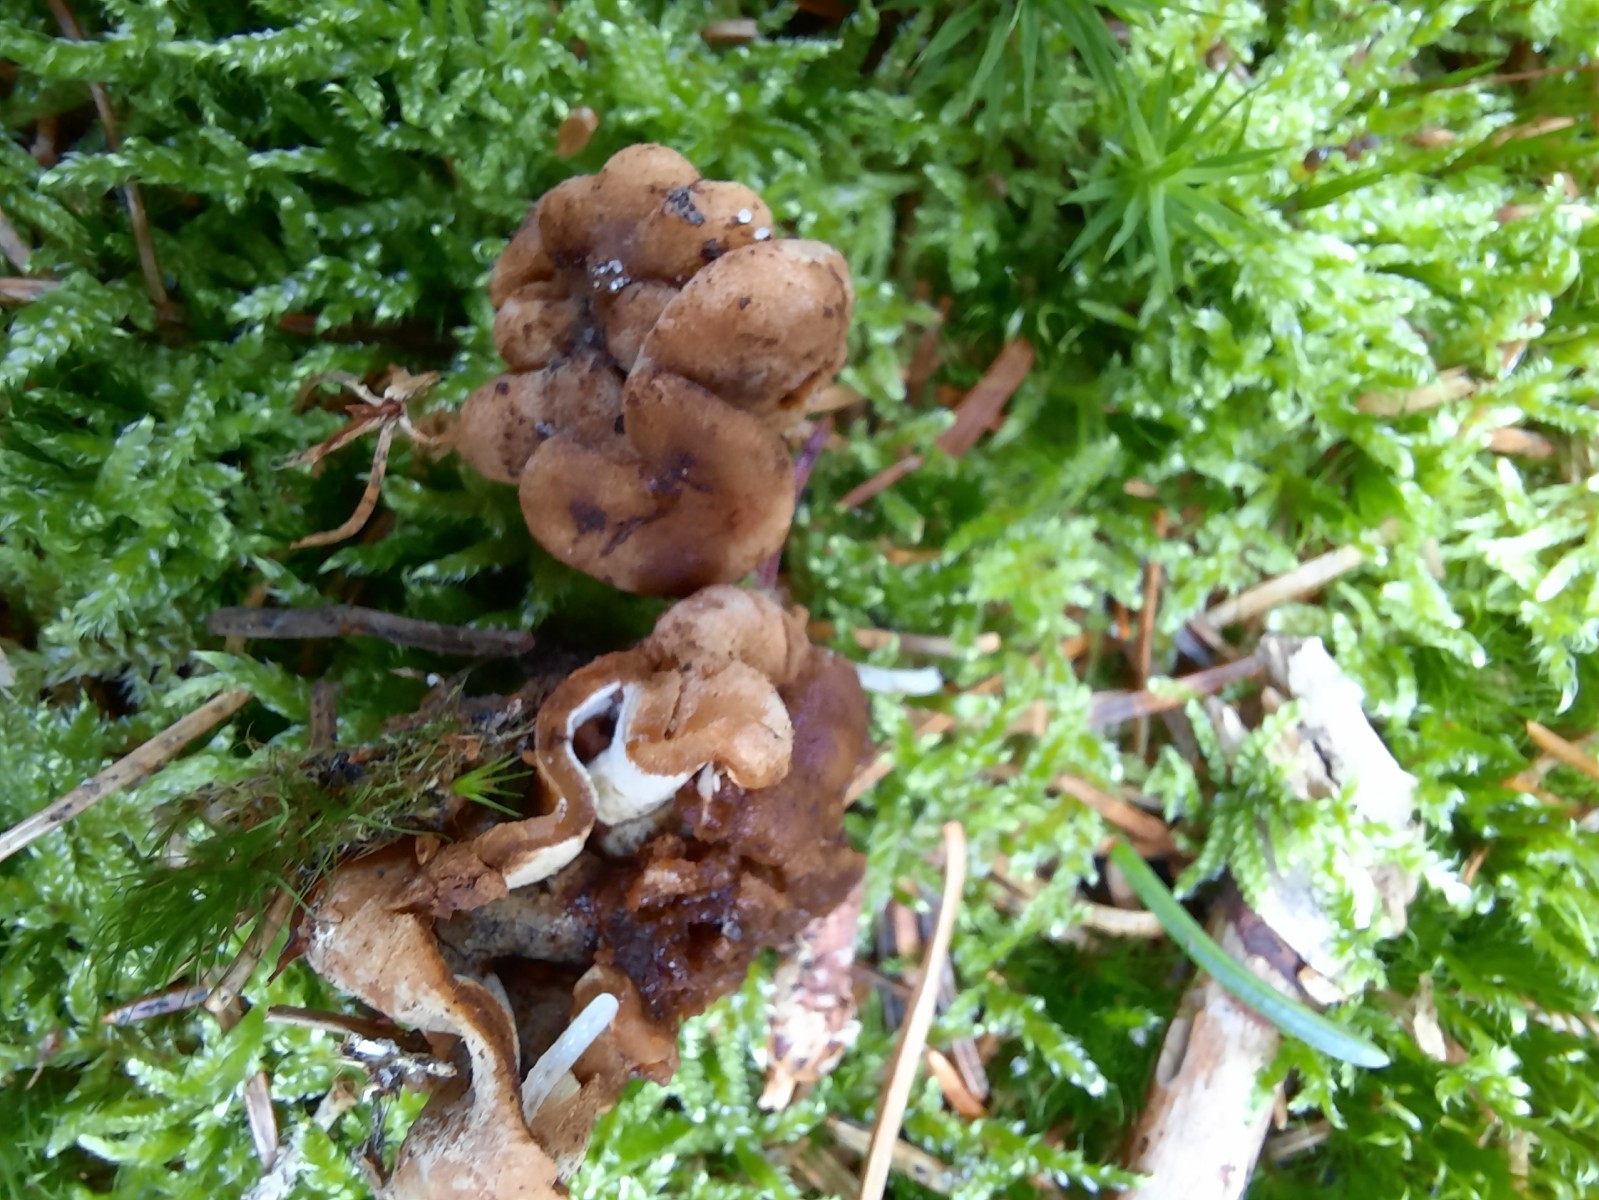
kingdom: Fungi
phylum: Ascomycota
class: Pezizomycetes
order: Pezizales
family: Discinaceae
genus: Hydnotrya
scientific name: Hydnotrya cubispora
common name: kassesporet foldtrøffel
